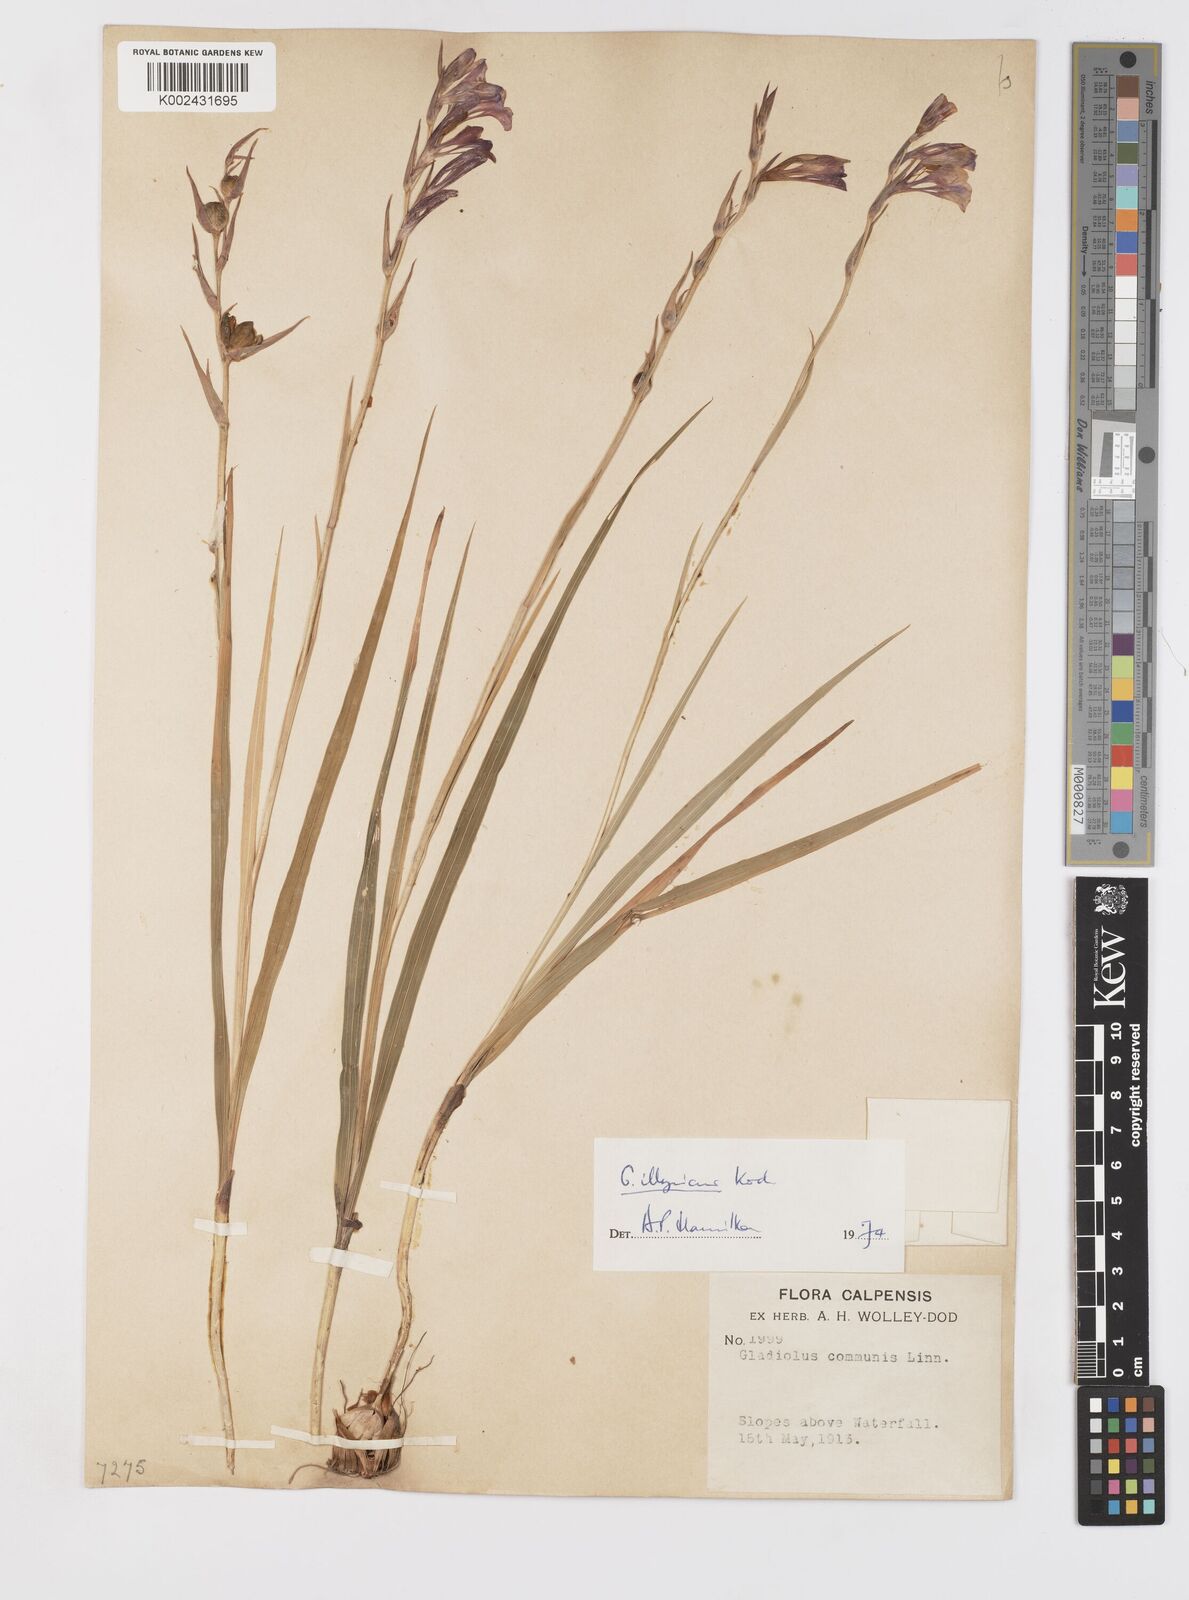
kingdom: Plantae
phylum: Tracheophyta
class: Liliopsida
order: Asparagales
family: Iridaceae
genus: Gladiolus
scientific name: Gladiolus illyricus
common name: Wild gladiolus
